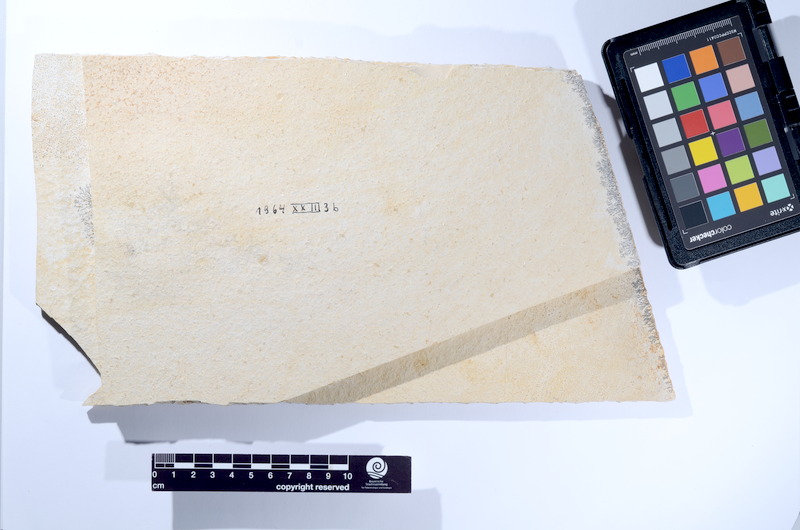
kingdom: Animalia
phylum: Chordata
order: Amiiformes
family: Caturidae
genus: Caturus
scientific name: Caturus
